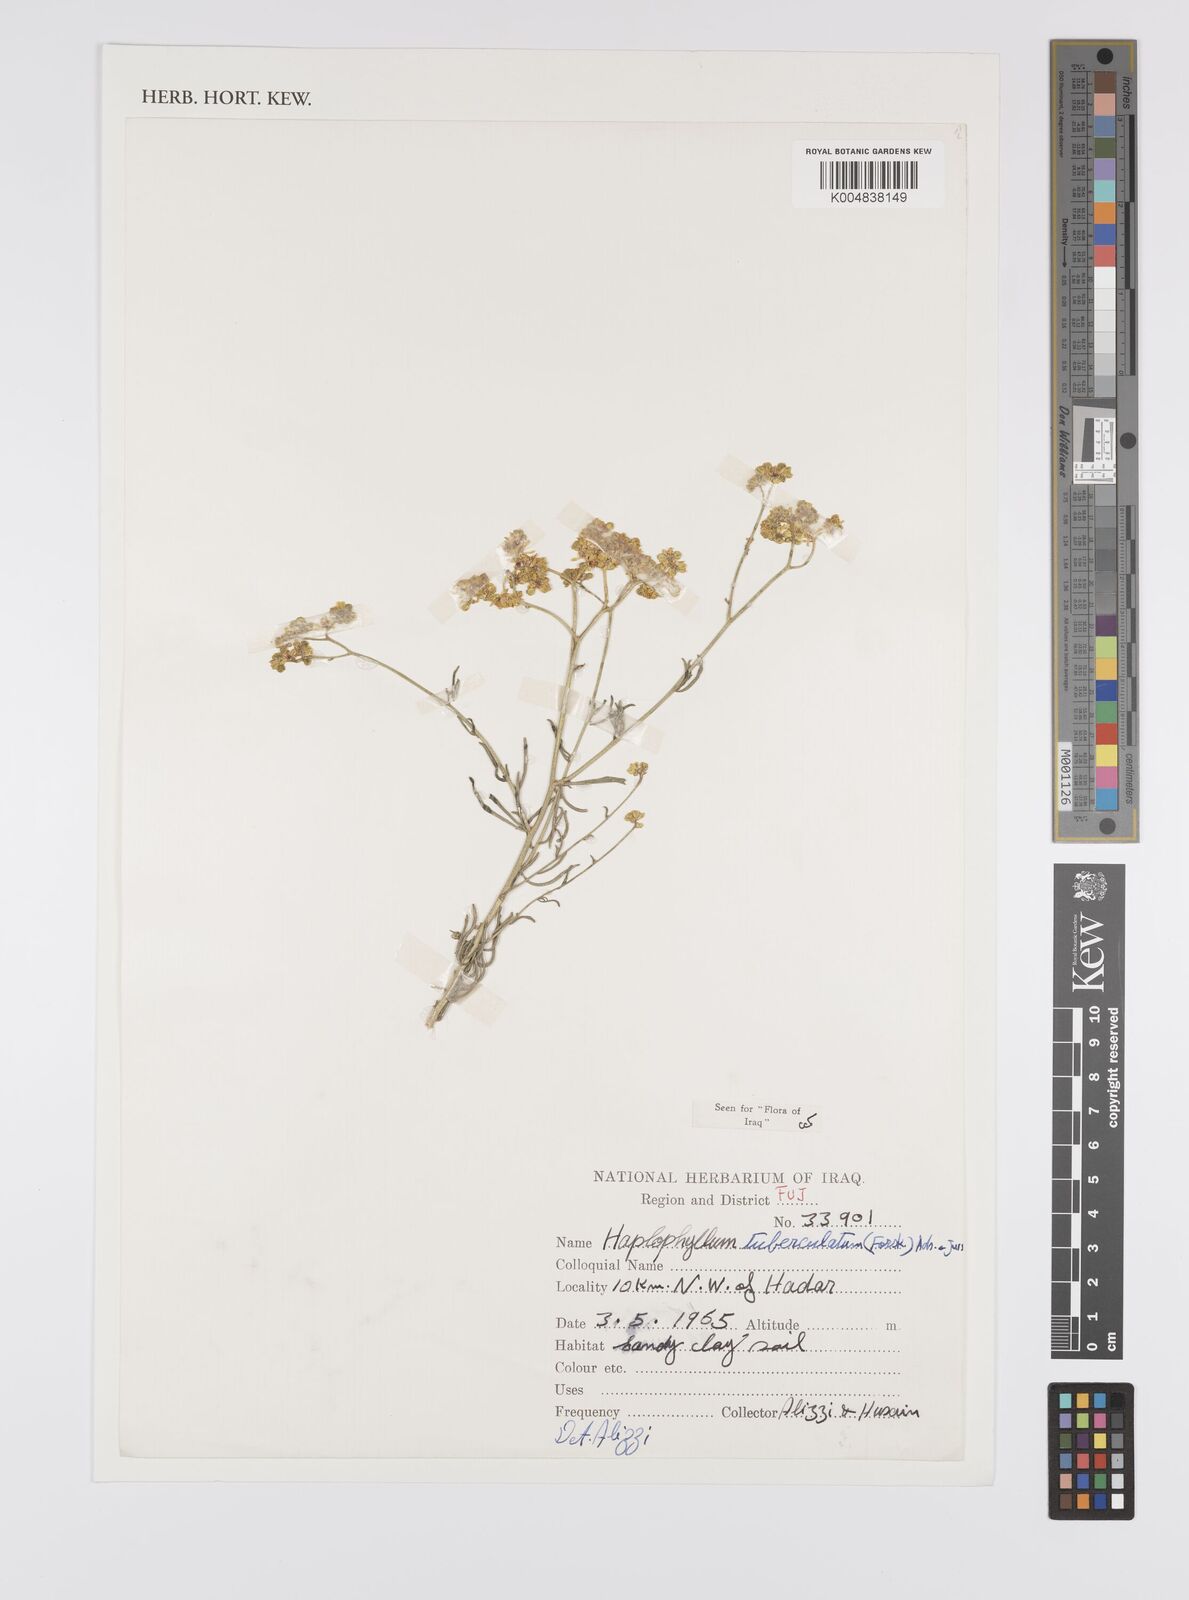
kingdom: Plantae
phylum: Tracheophyta
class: Magnoliopsida
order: Sapindales
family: Rutaceae
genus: Haplophyllum
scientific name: Haplophyllum tuberculatum
